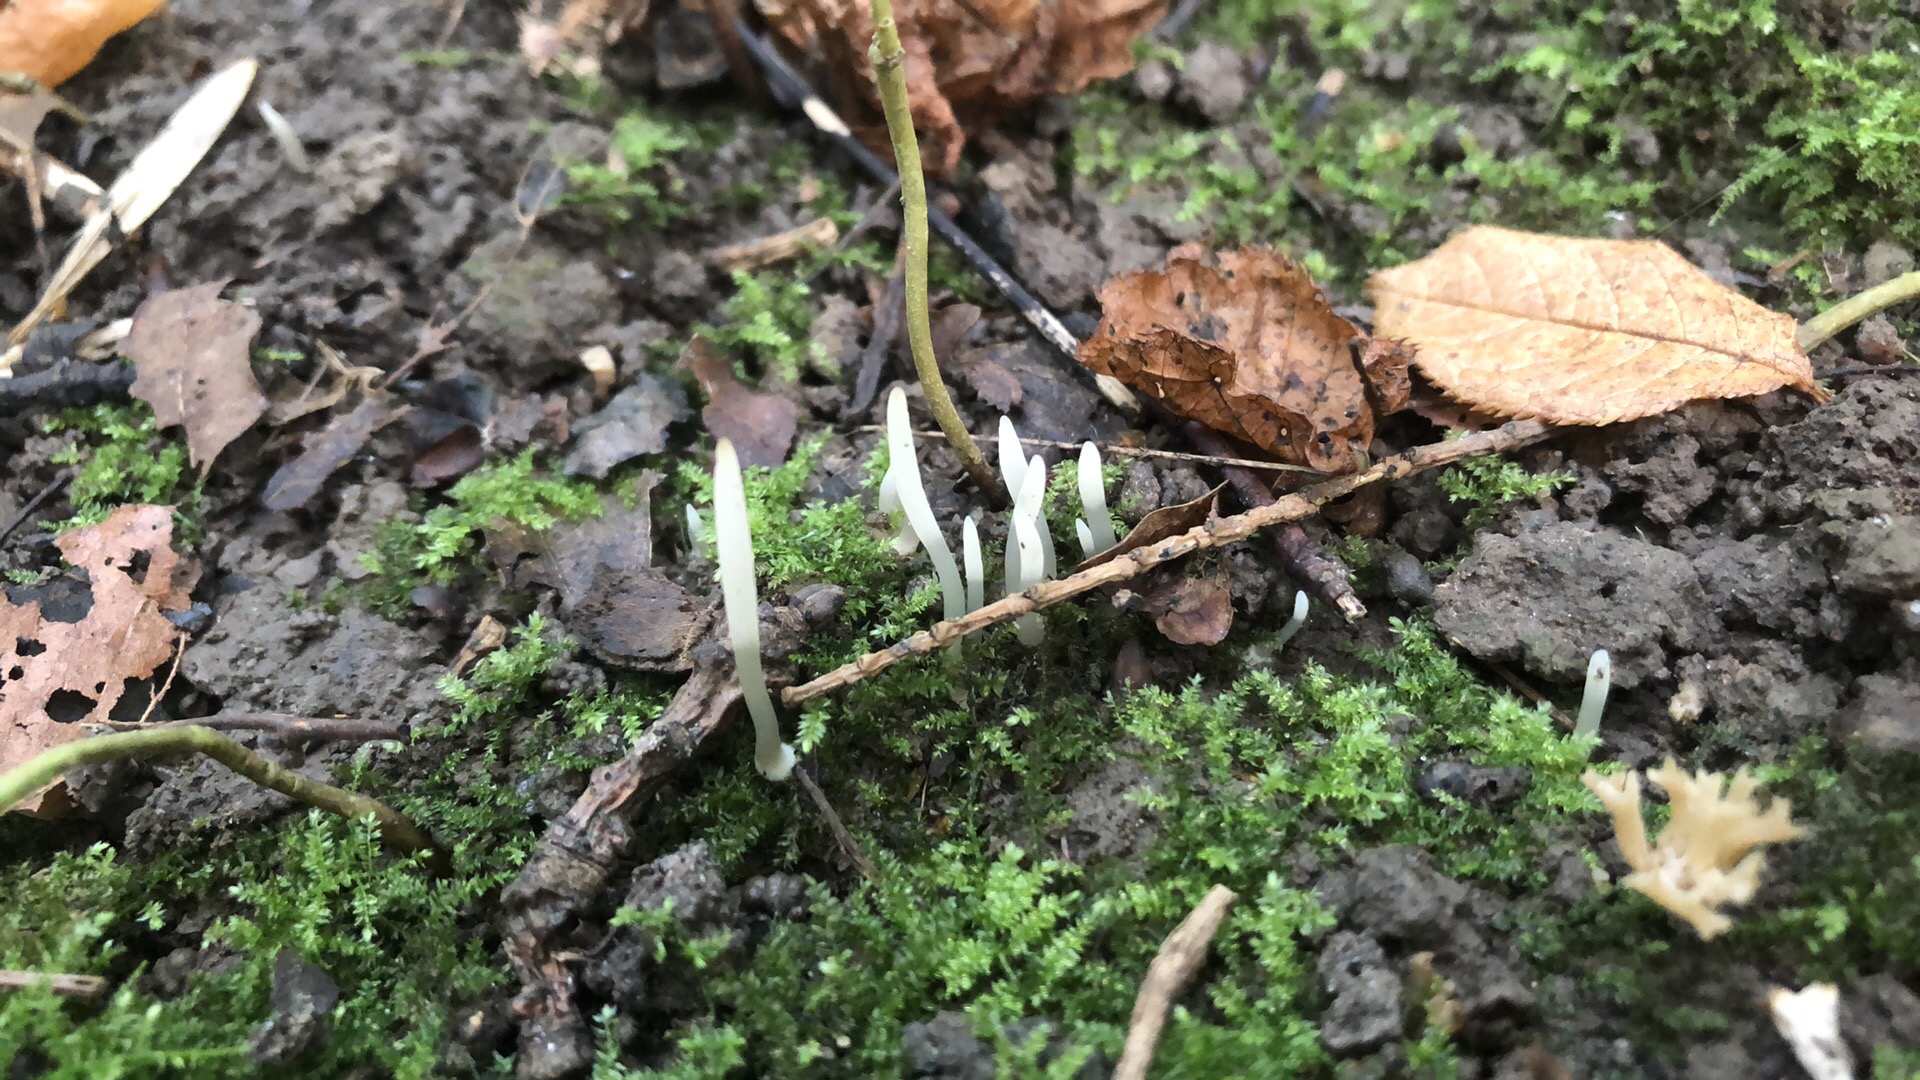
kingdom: Fungi
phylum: Basidiomycota
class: Agaricomycetes
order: Agaricales
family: Clavariaceae
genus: Clavaria
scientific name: Clavaria falcata
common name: hvid køllesvamp
